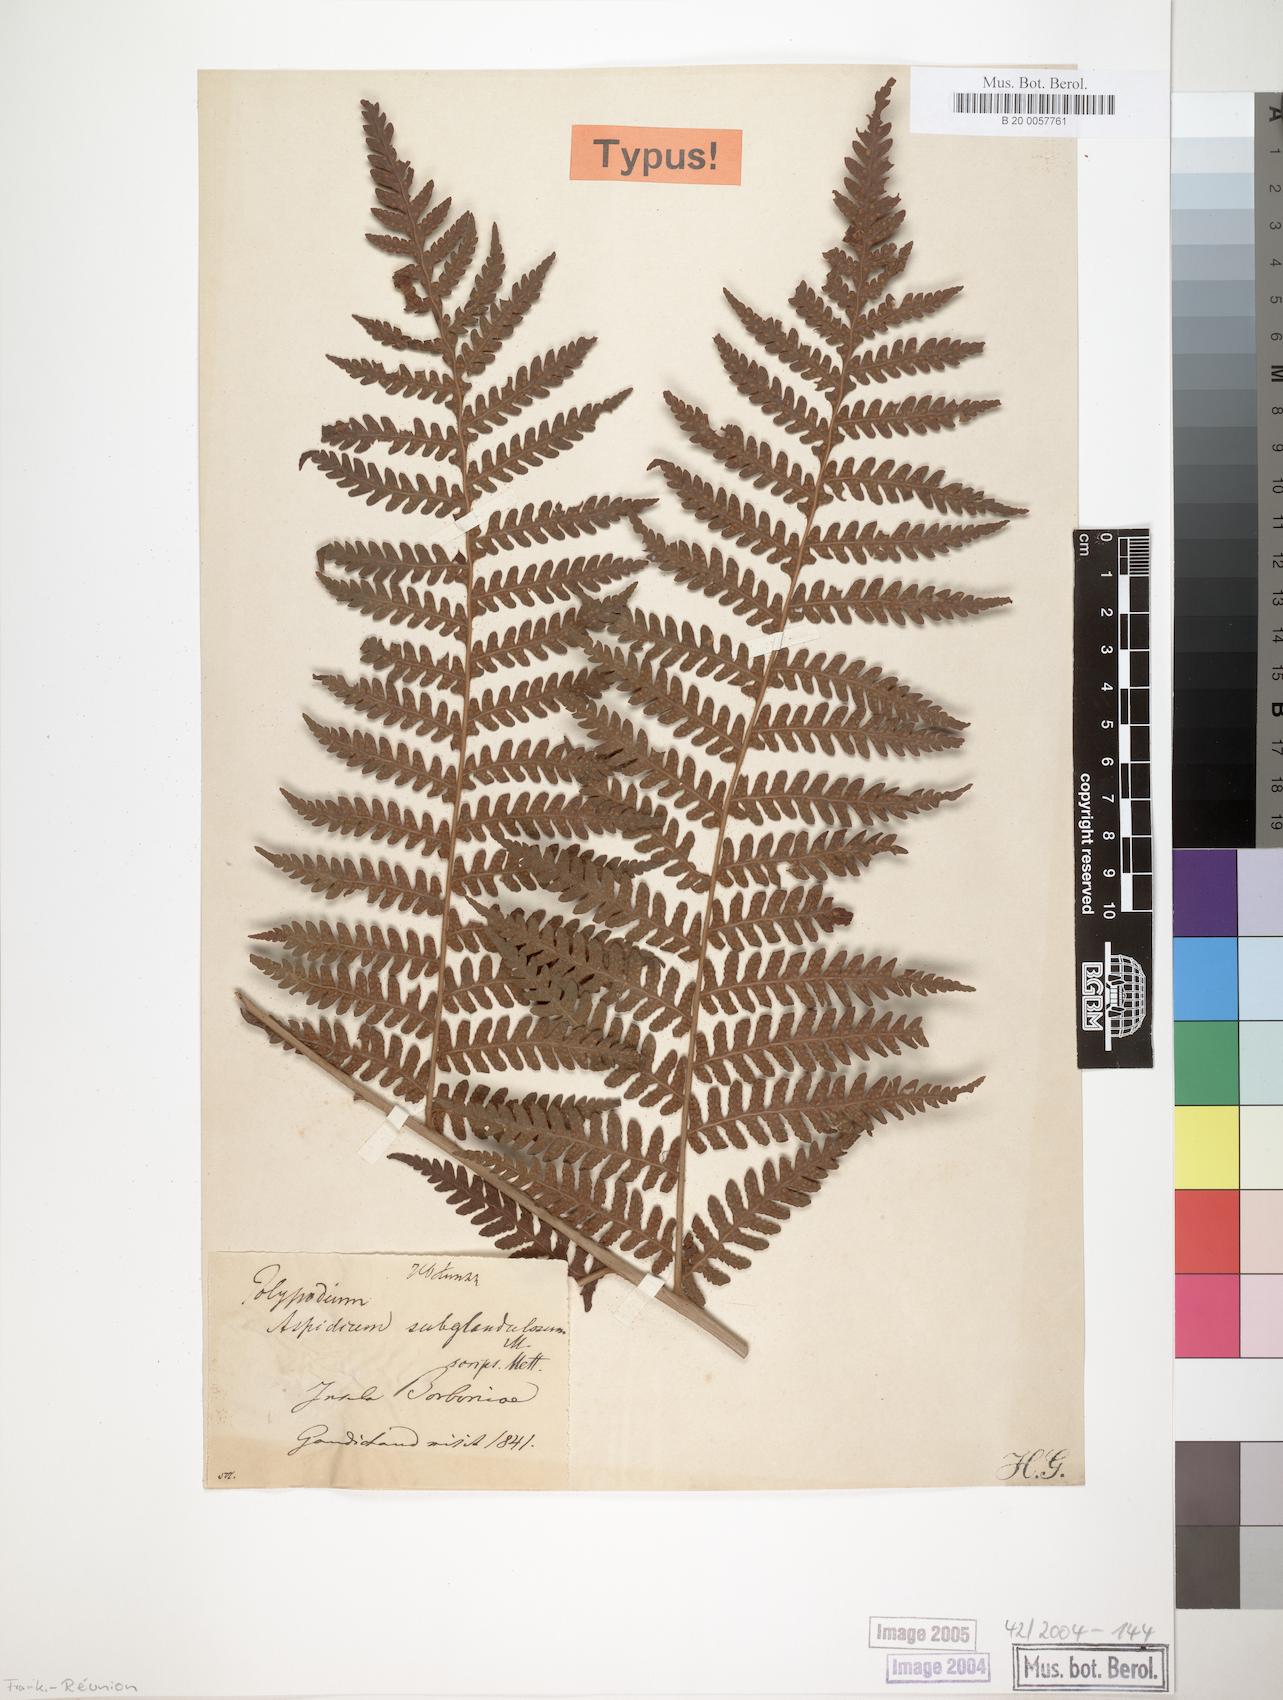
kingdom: Plantae
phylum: Tracheophyta
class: Polypodiopsida
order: Polypodiales
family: Thelypteridaceae
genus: Pseudophegopteris
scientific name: Pseudophegopteris aubertii
